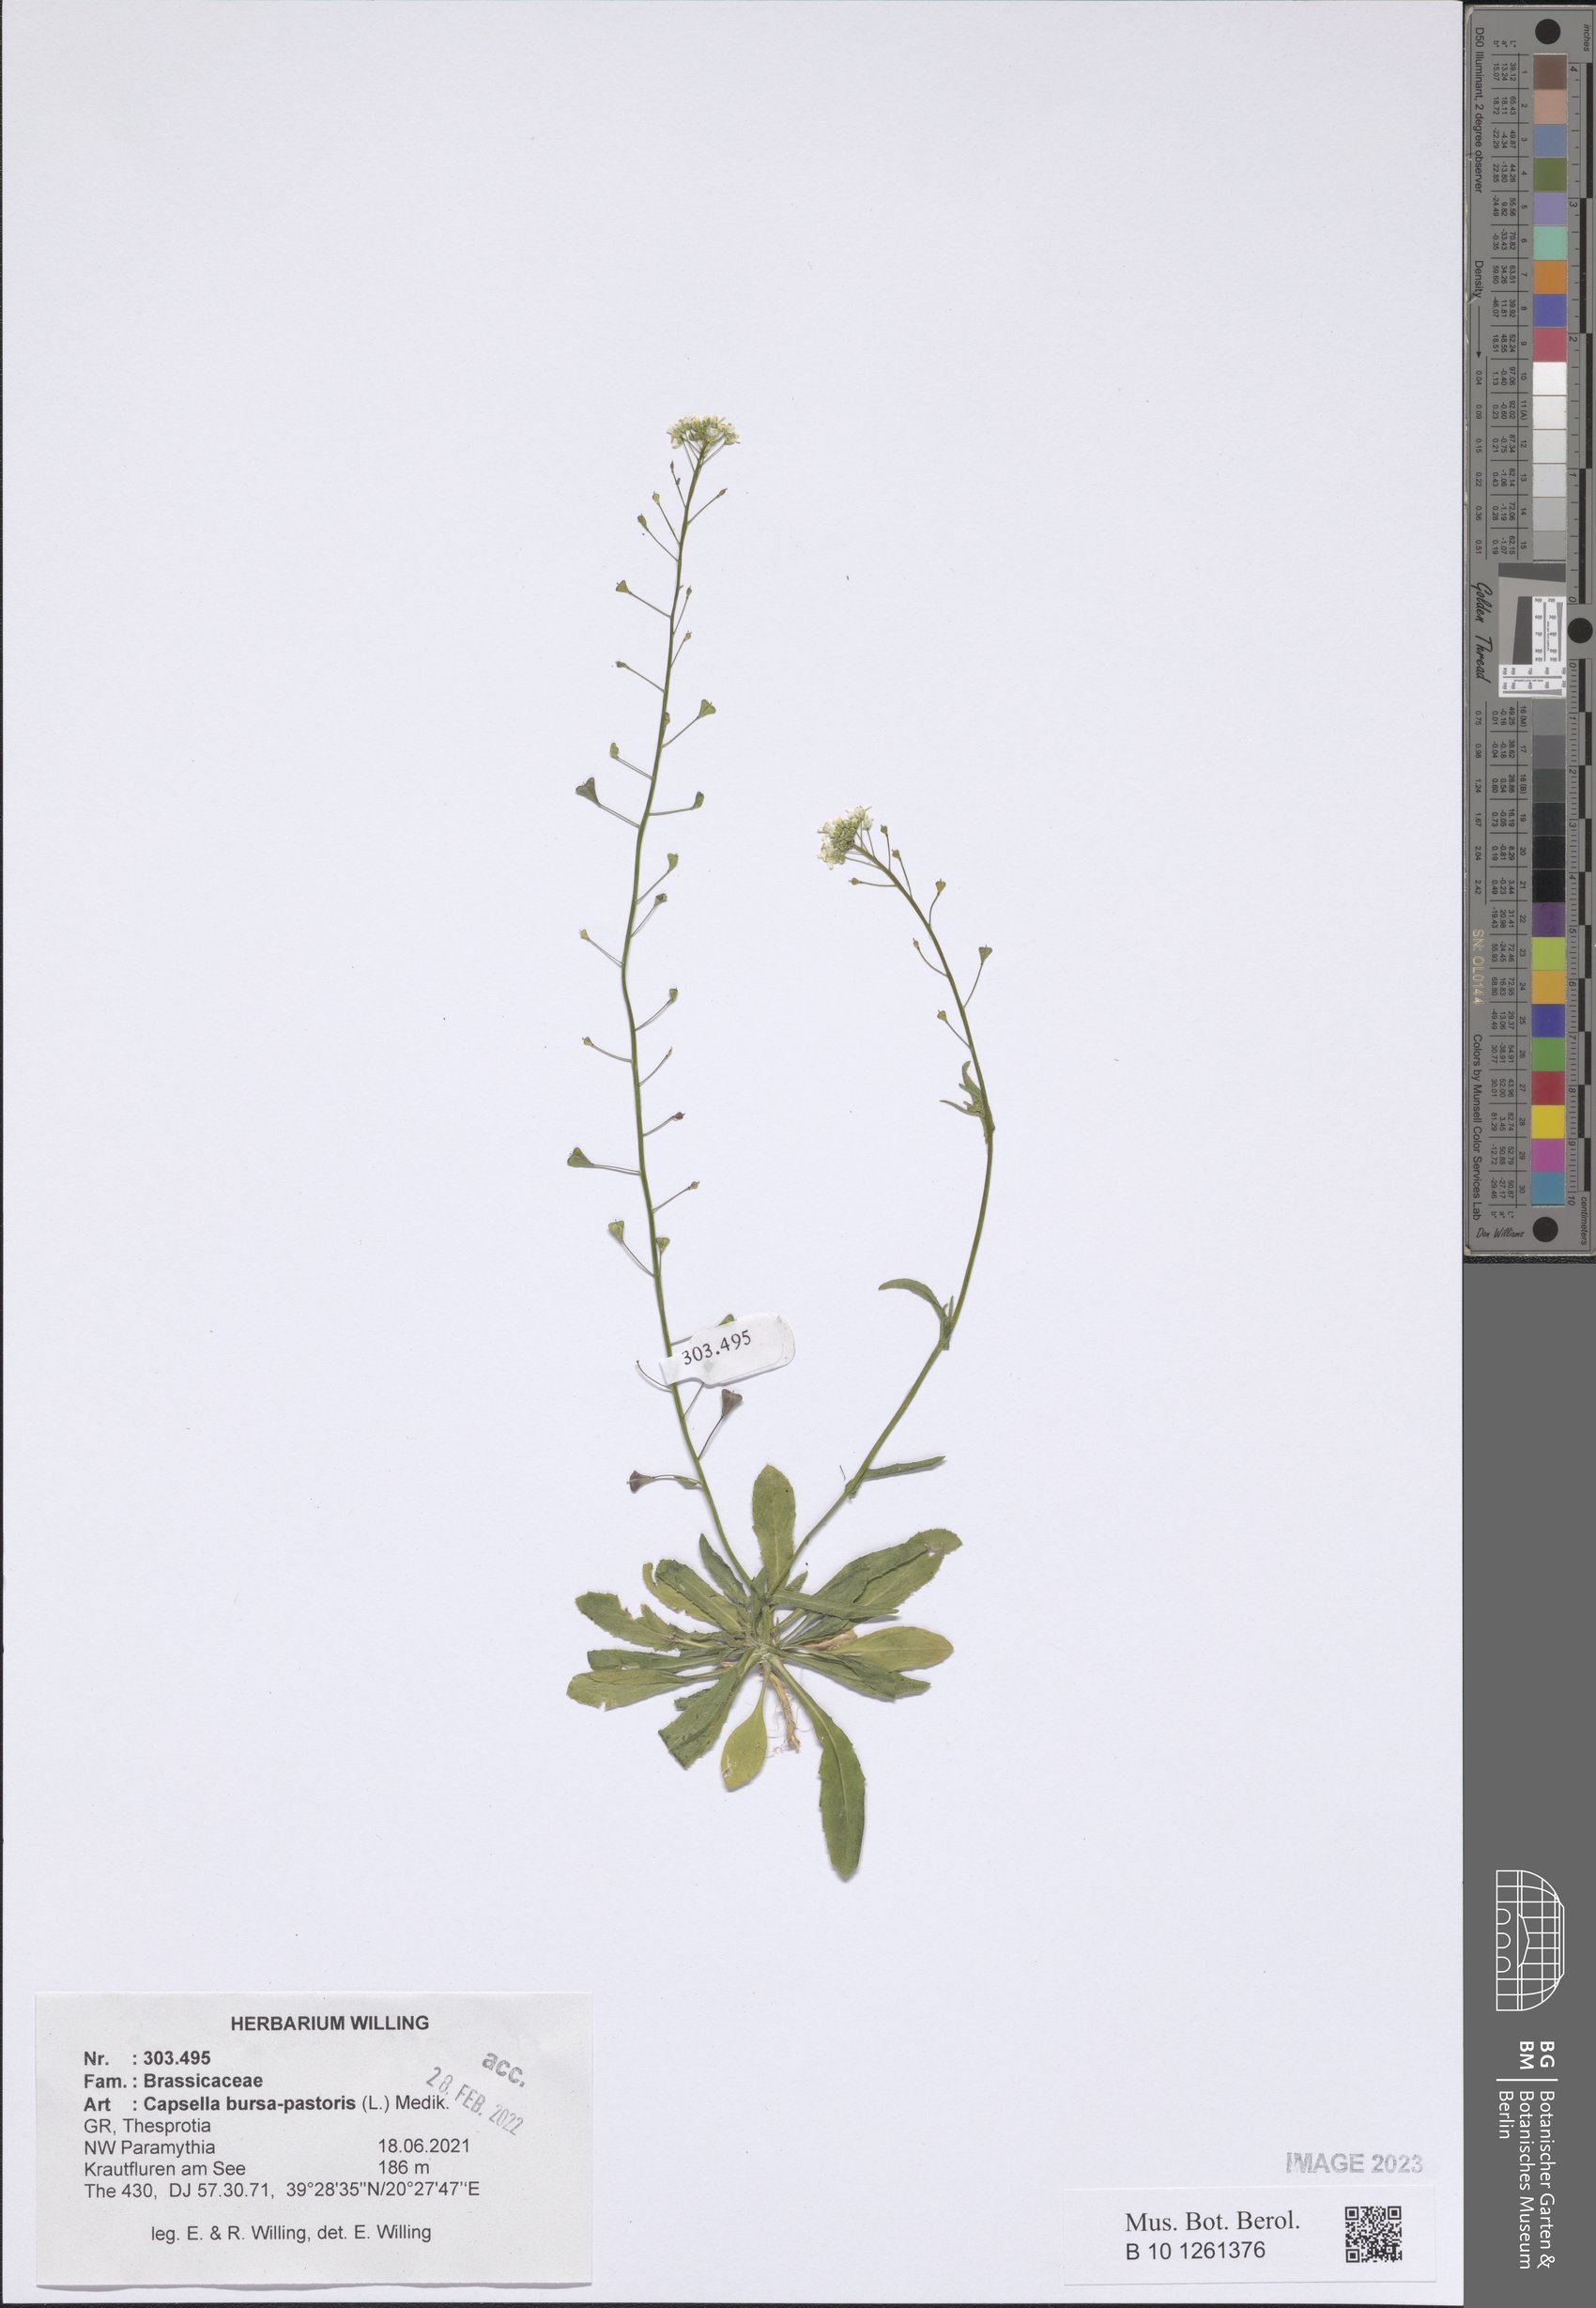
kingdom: Plantae
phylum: Tracheophyta
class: Magnoliopsida
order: Brassicales
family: Brassicaceae
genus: Capsella
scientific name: Capsella bursa-pastoris
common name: Shepherd's purse
